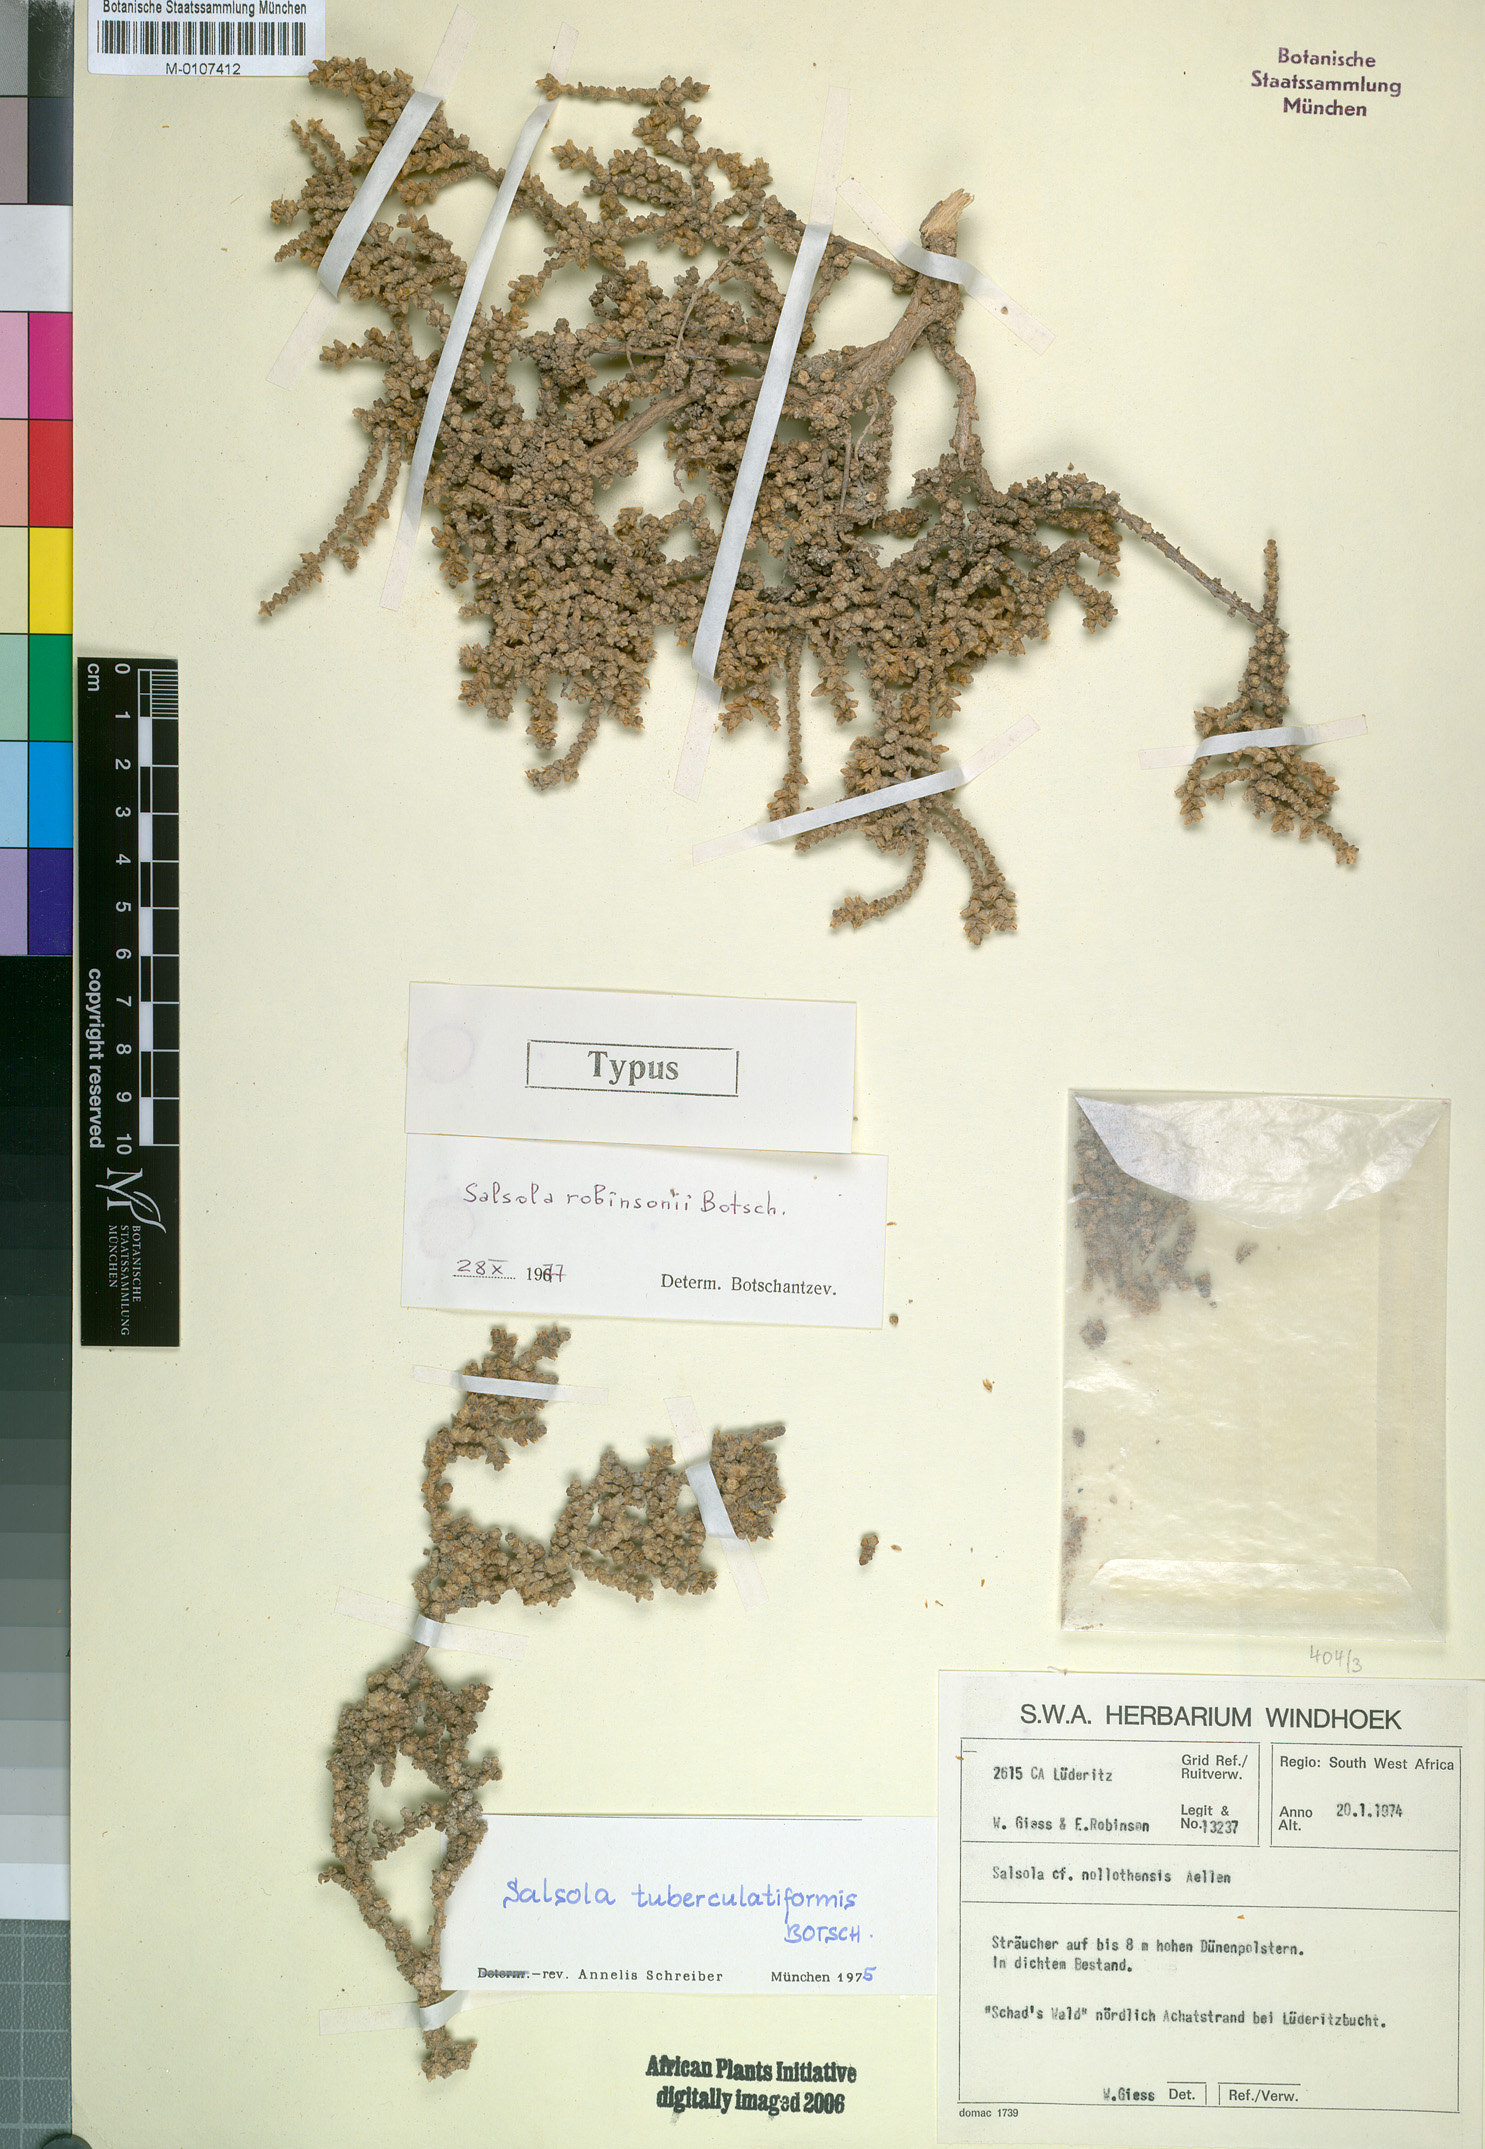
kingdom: Plantae
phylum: Tracheophyta
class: Magnoliopsida
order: Caryophyllales
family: Amaranthaceae
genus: Caroxylon
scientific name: Caroxylon robinsonii
